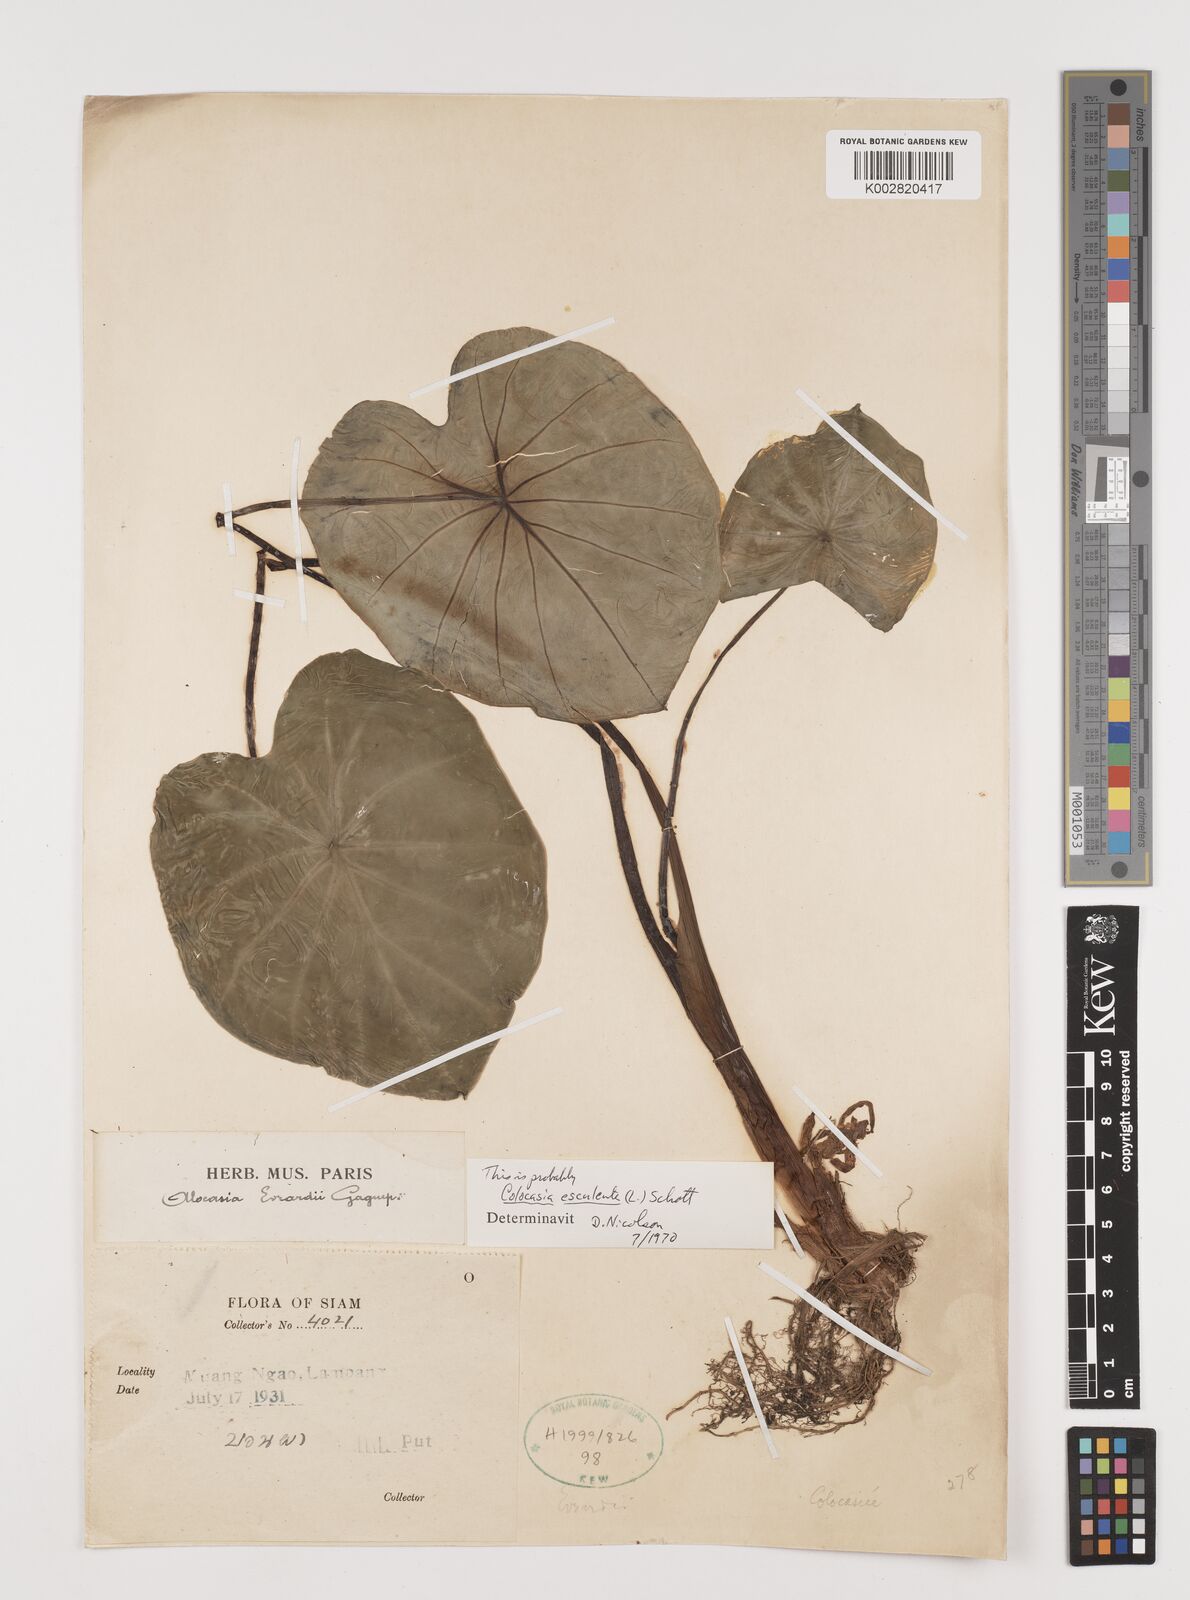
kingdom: Plantae
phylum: Tracheophyta
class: Liliopsida
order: Alismatales
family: Araceae
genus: Colocasia
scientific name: Colocasia esculenta
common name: Taro
